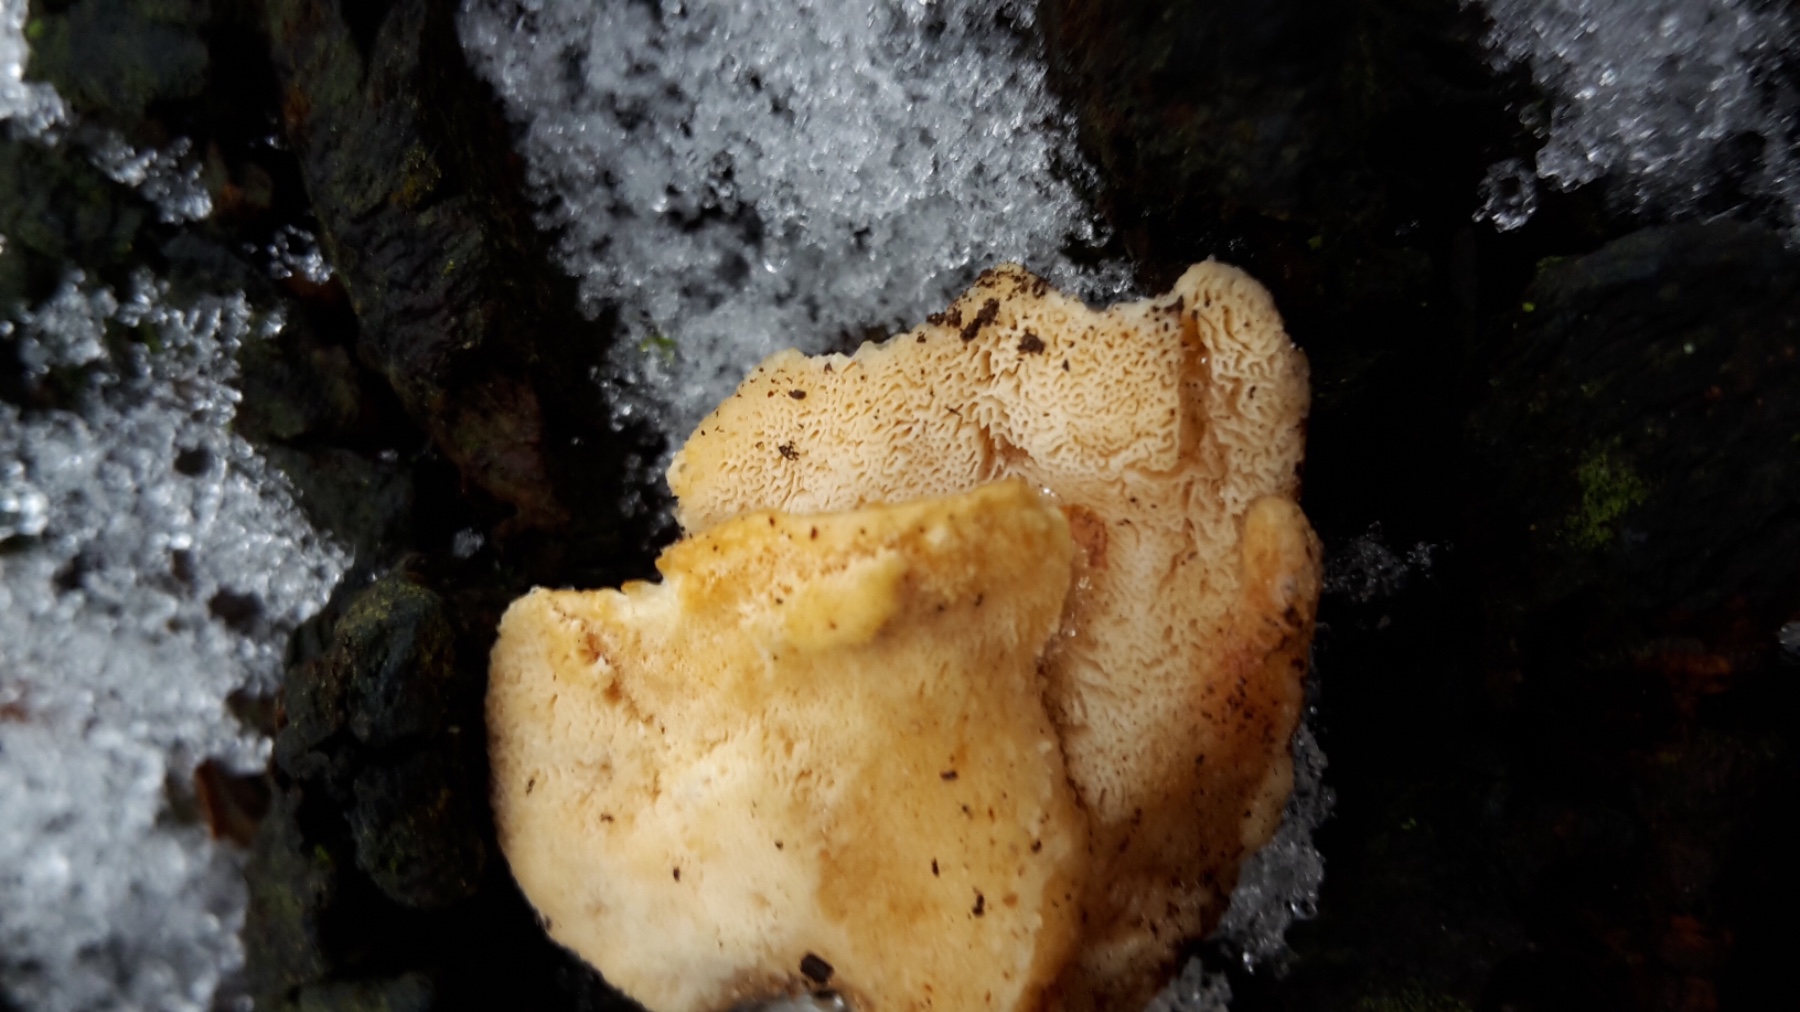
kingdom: Fungi
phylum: Basidiomycota
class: Agaricomycetes
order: Polyporales
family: Steccherinaceae
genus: Antrodiella
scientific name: Antrodiella serpula
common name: gulrandet elastikporesvamp
